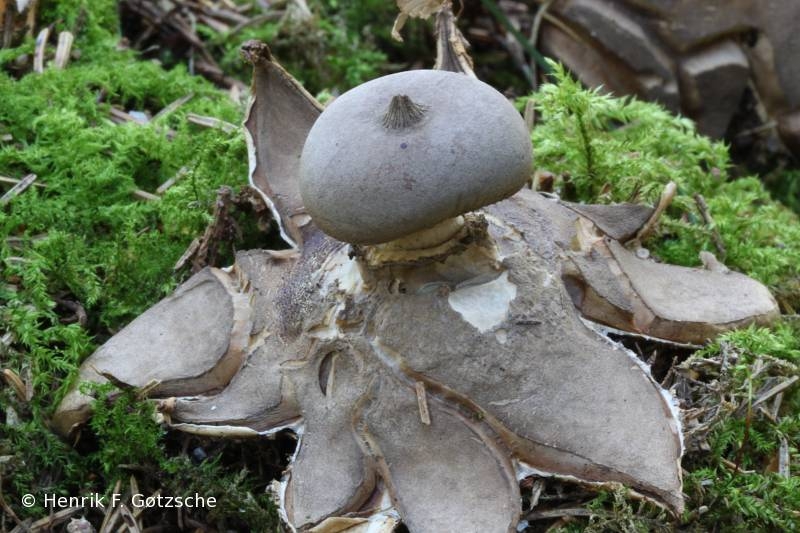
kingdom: Fungi
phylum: Basidiomycota
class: Agaricomycetes
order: Geastrales
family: Geastraceae
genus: Geastrum
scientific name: Geastrum pectinatum
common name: stilket stjernebold
